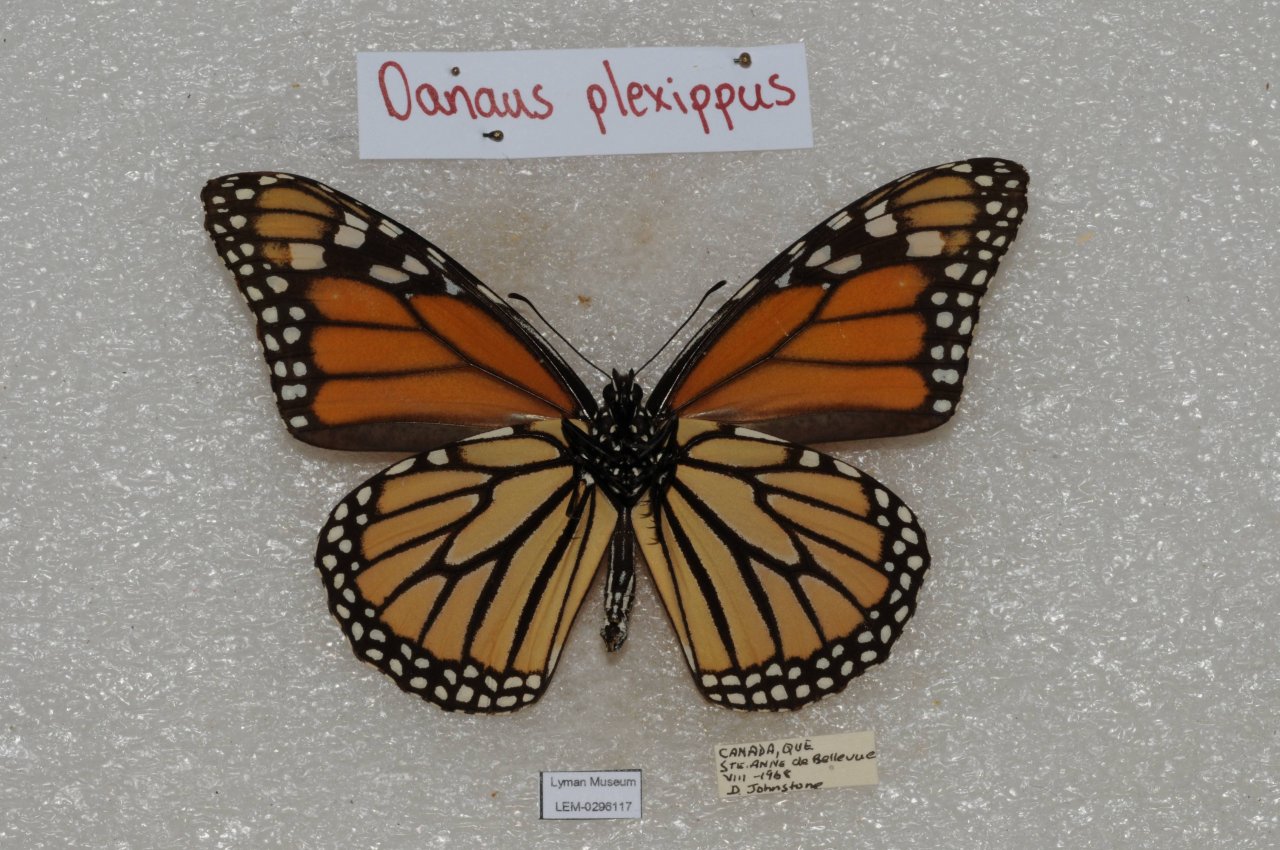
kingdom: Animalia
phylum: Arthropoda
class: Insecta
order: Lepidoptera
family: Nymphalidae
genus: Danaus
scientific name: Danaus plexippus
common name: Monarch
